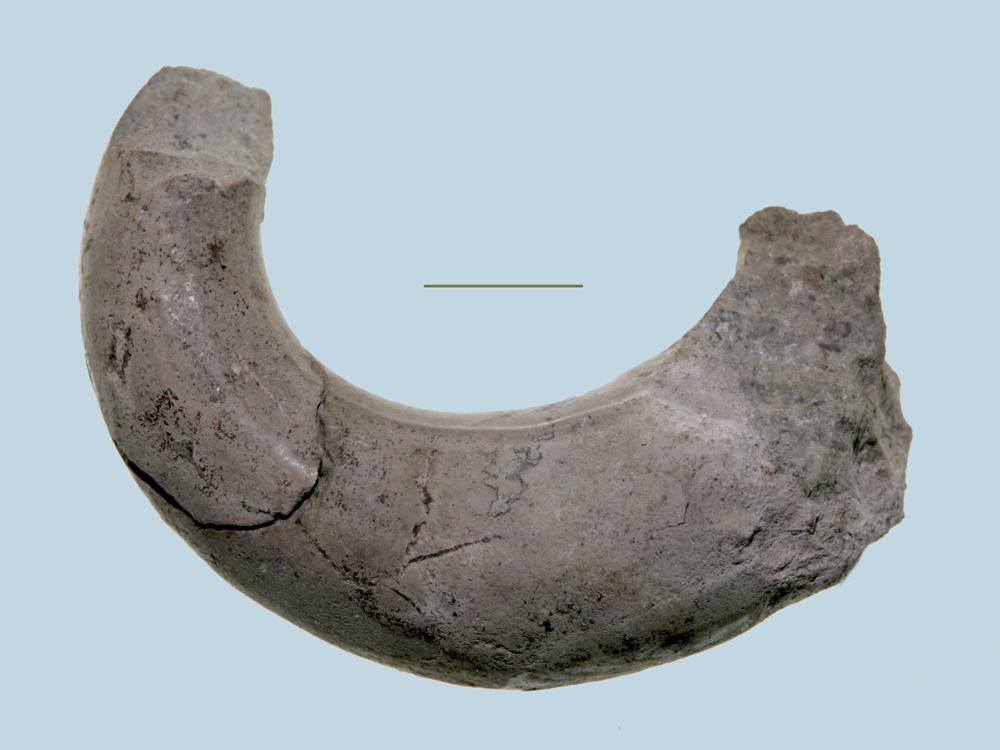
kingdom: Animalia
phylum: Mollusca
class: Gastropoda
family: Ophiletidae
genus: Lytospira
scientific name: Lytospira tubicina
